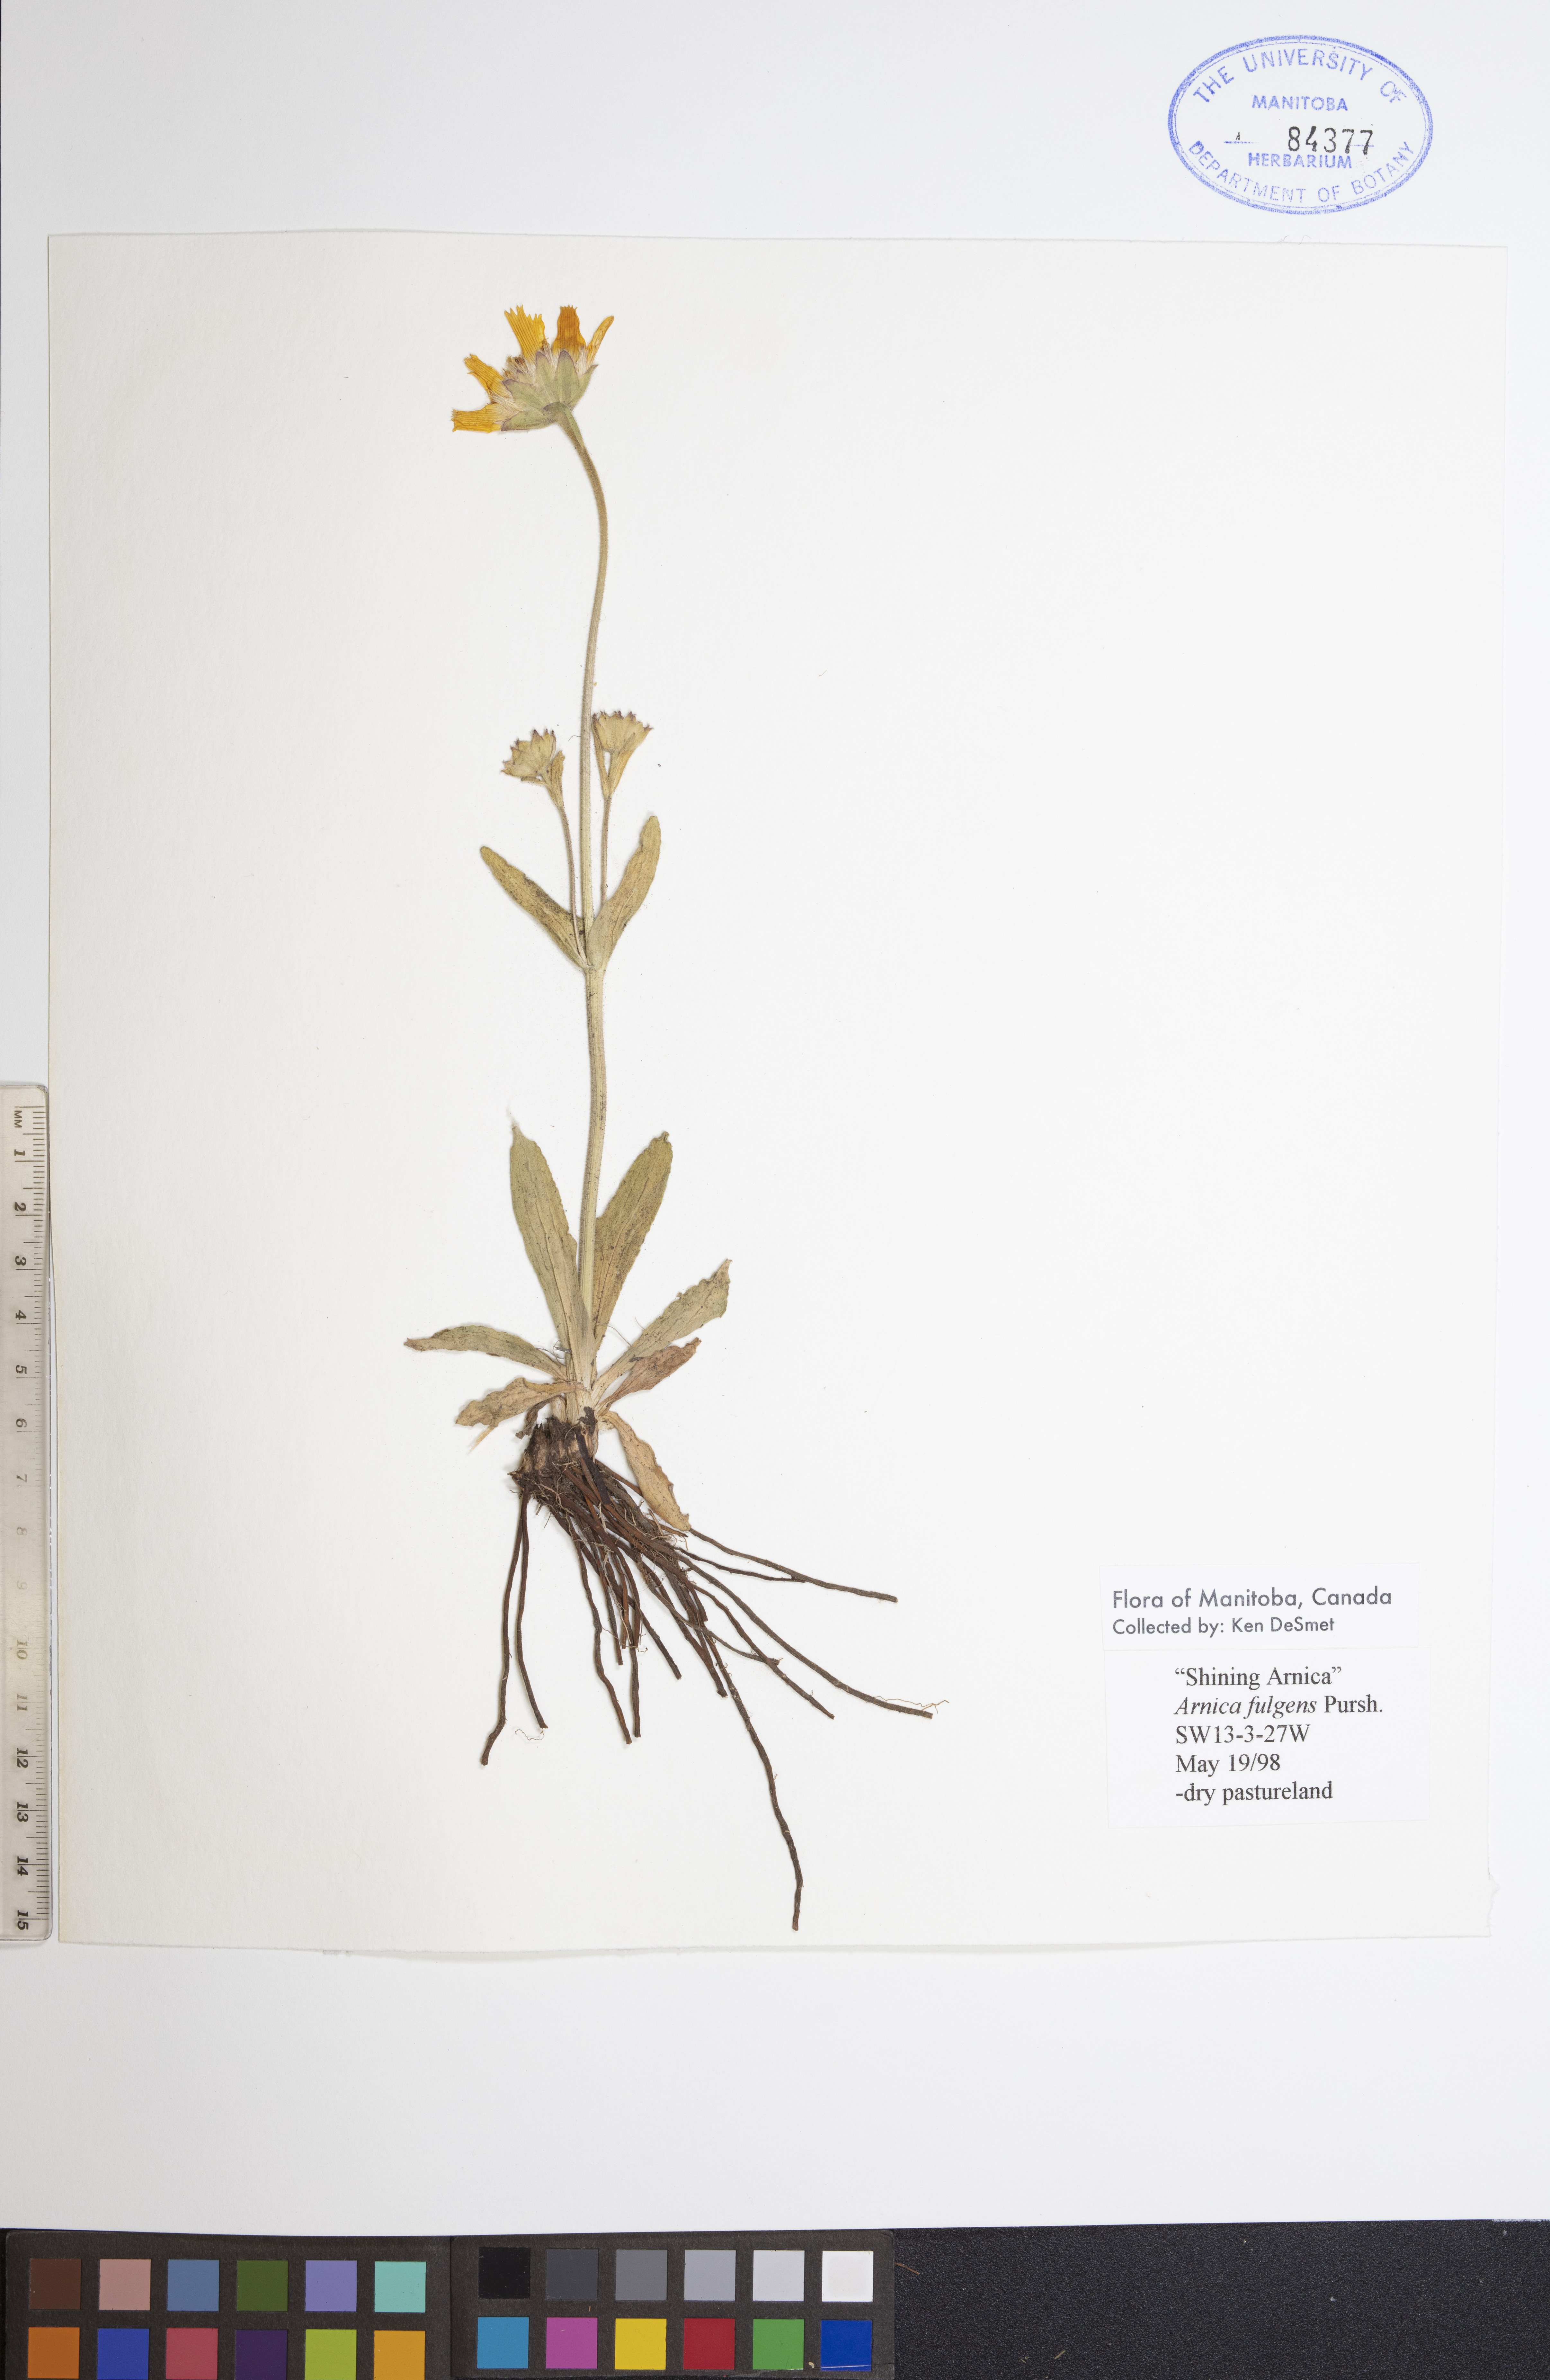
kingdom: Plantae
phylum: Tracheophyta
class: Magnoliopsida
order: Asterales
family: Asteraceae
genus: Arnica
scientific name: Arnica fulgens
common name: Foothill arnica
